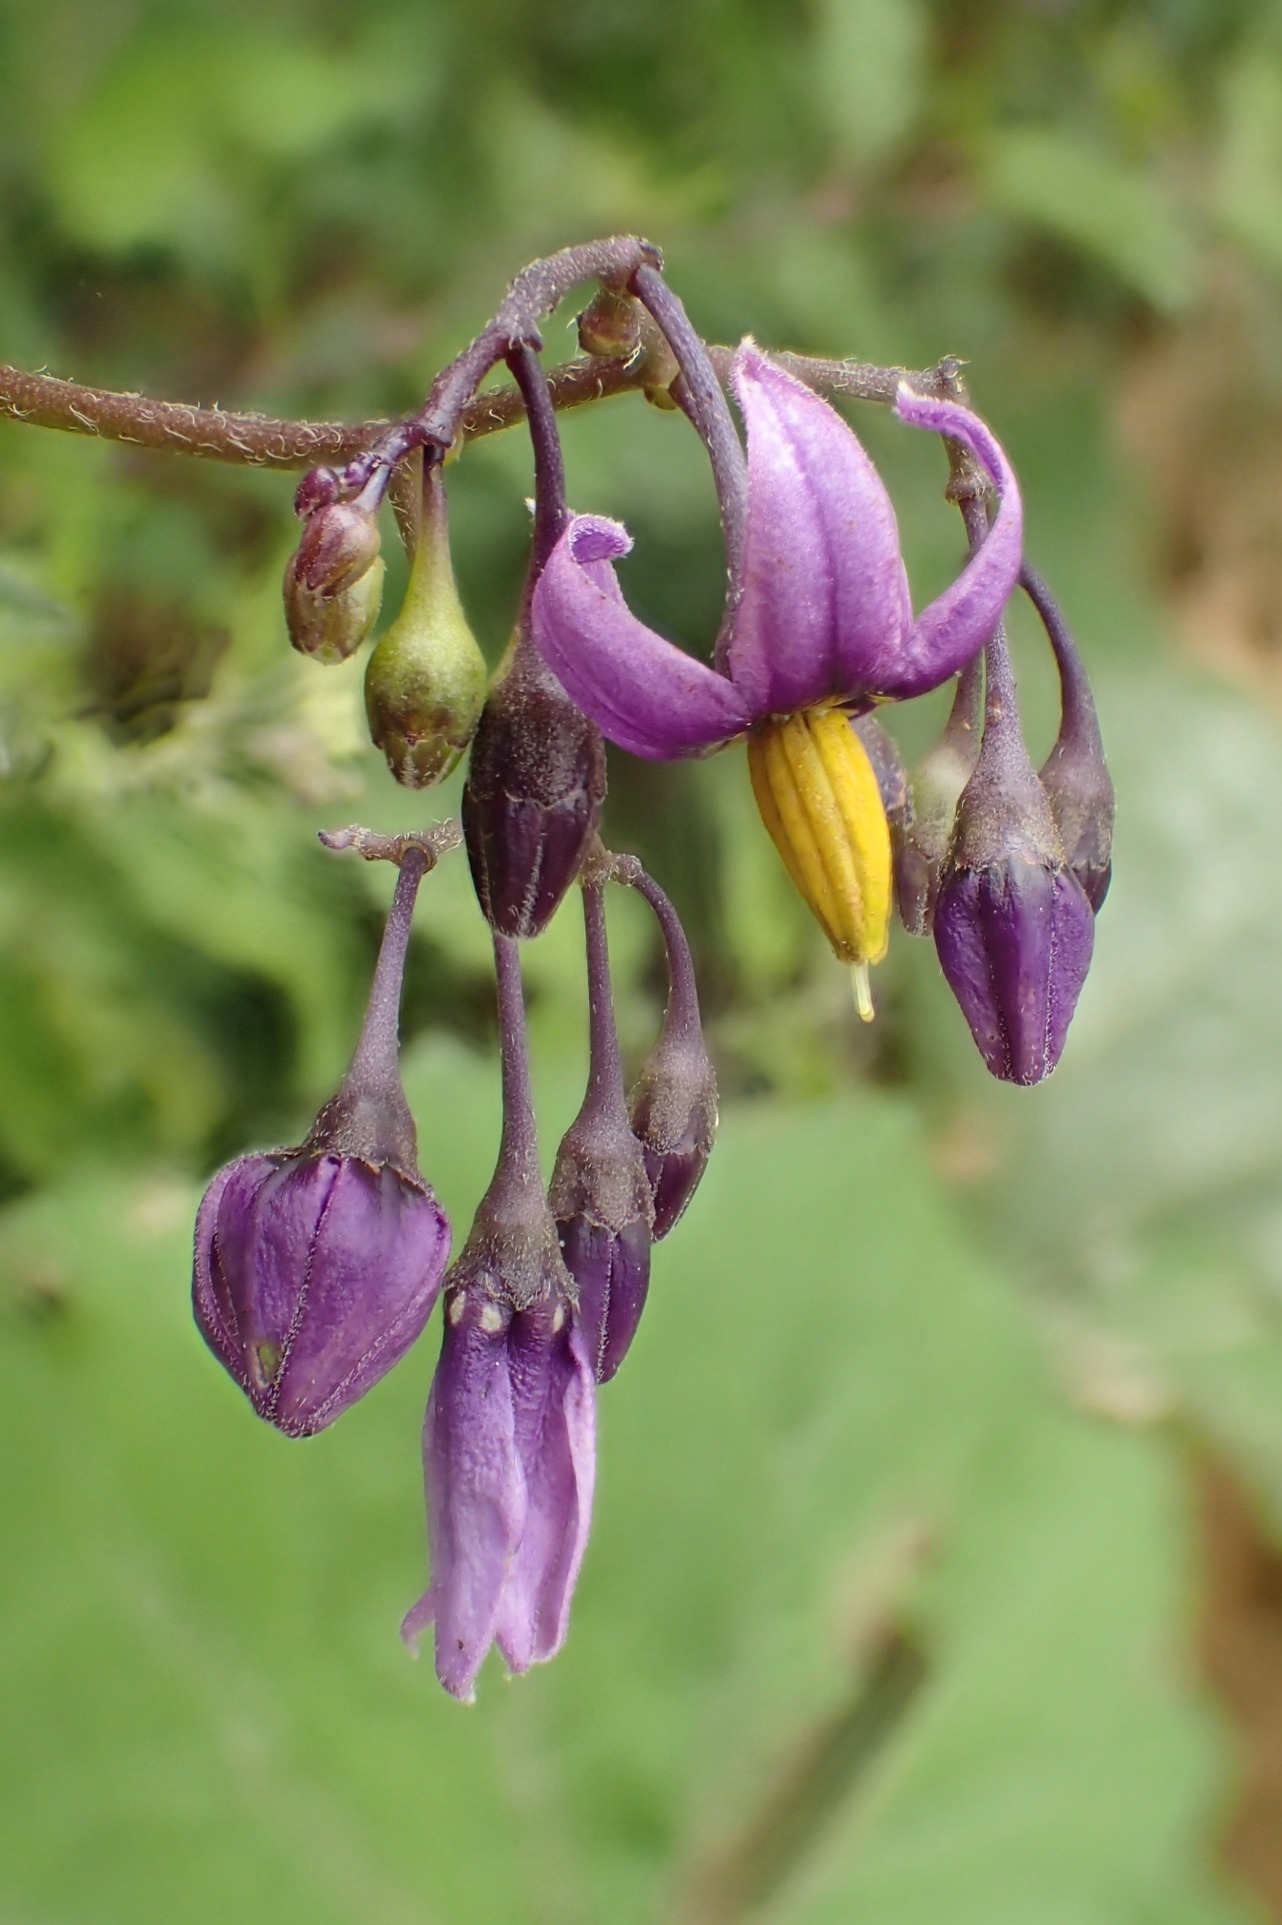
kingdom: Plantae
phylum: Tracheophyta
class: Magnoliopsida
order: Solanales
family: Solanaceae
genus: Solanum
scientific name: Solanum dulcamara
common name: Bittersød natskygge
